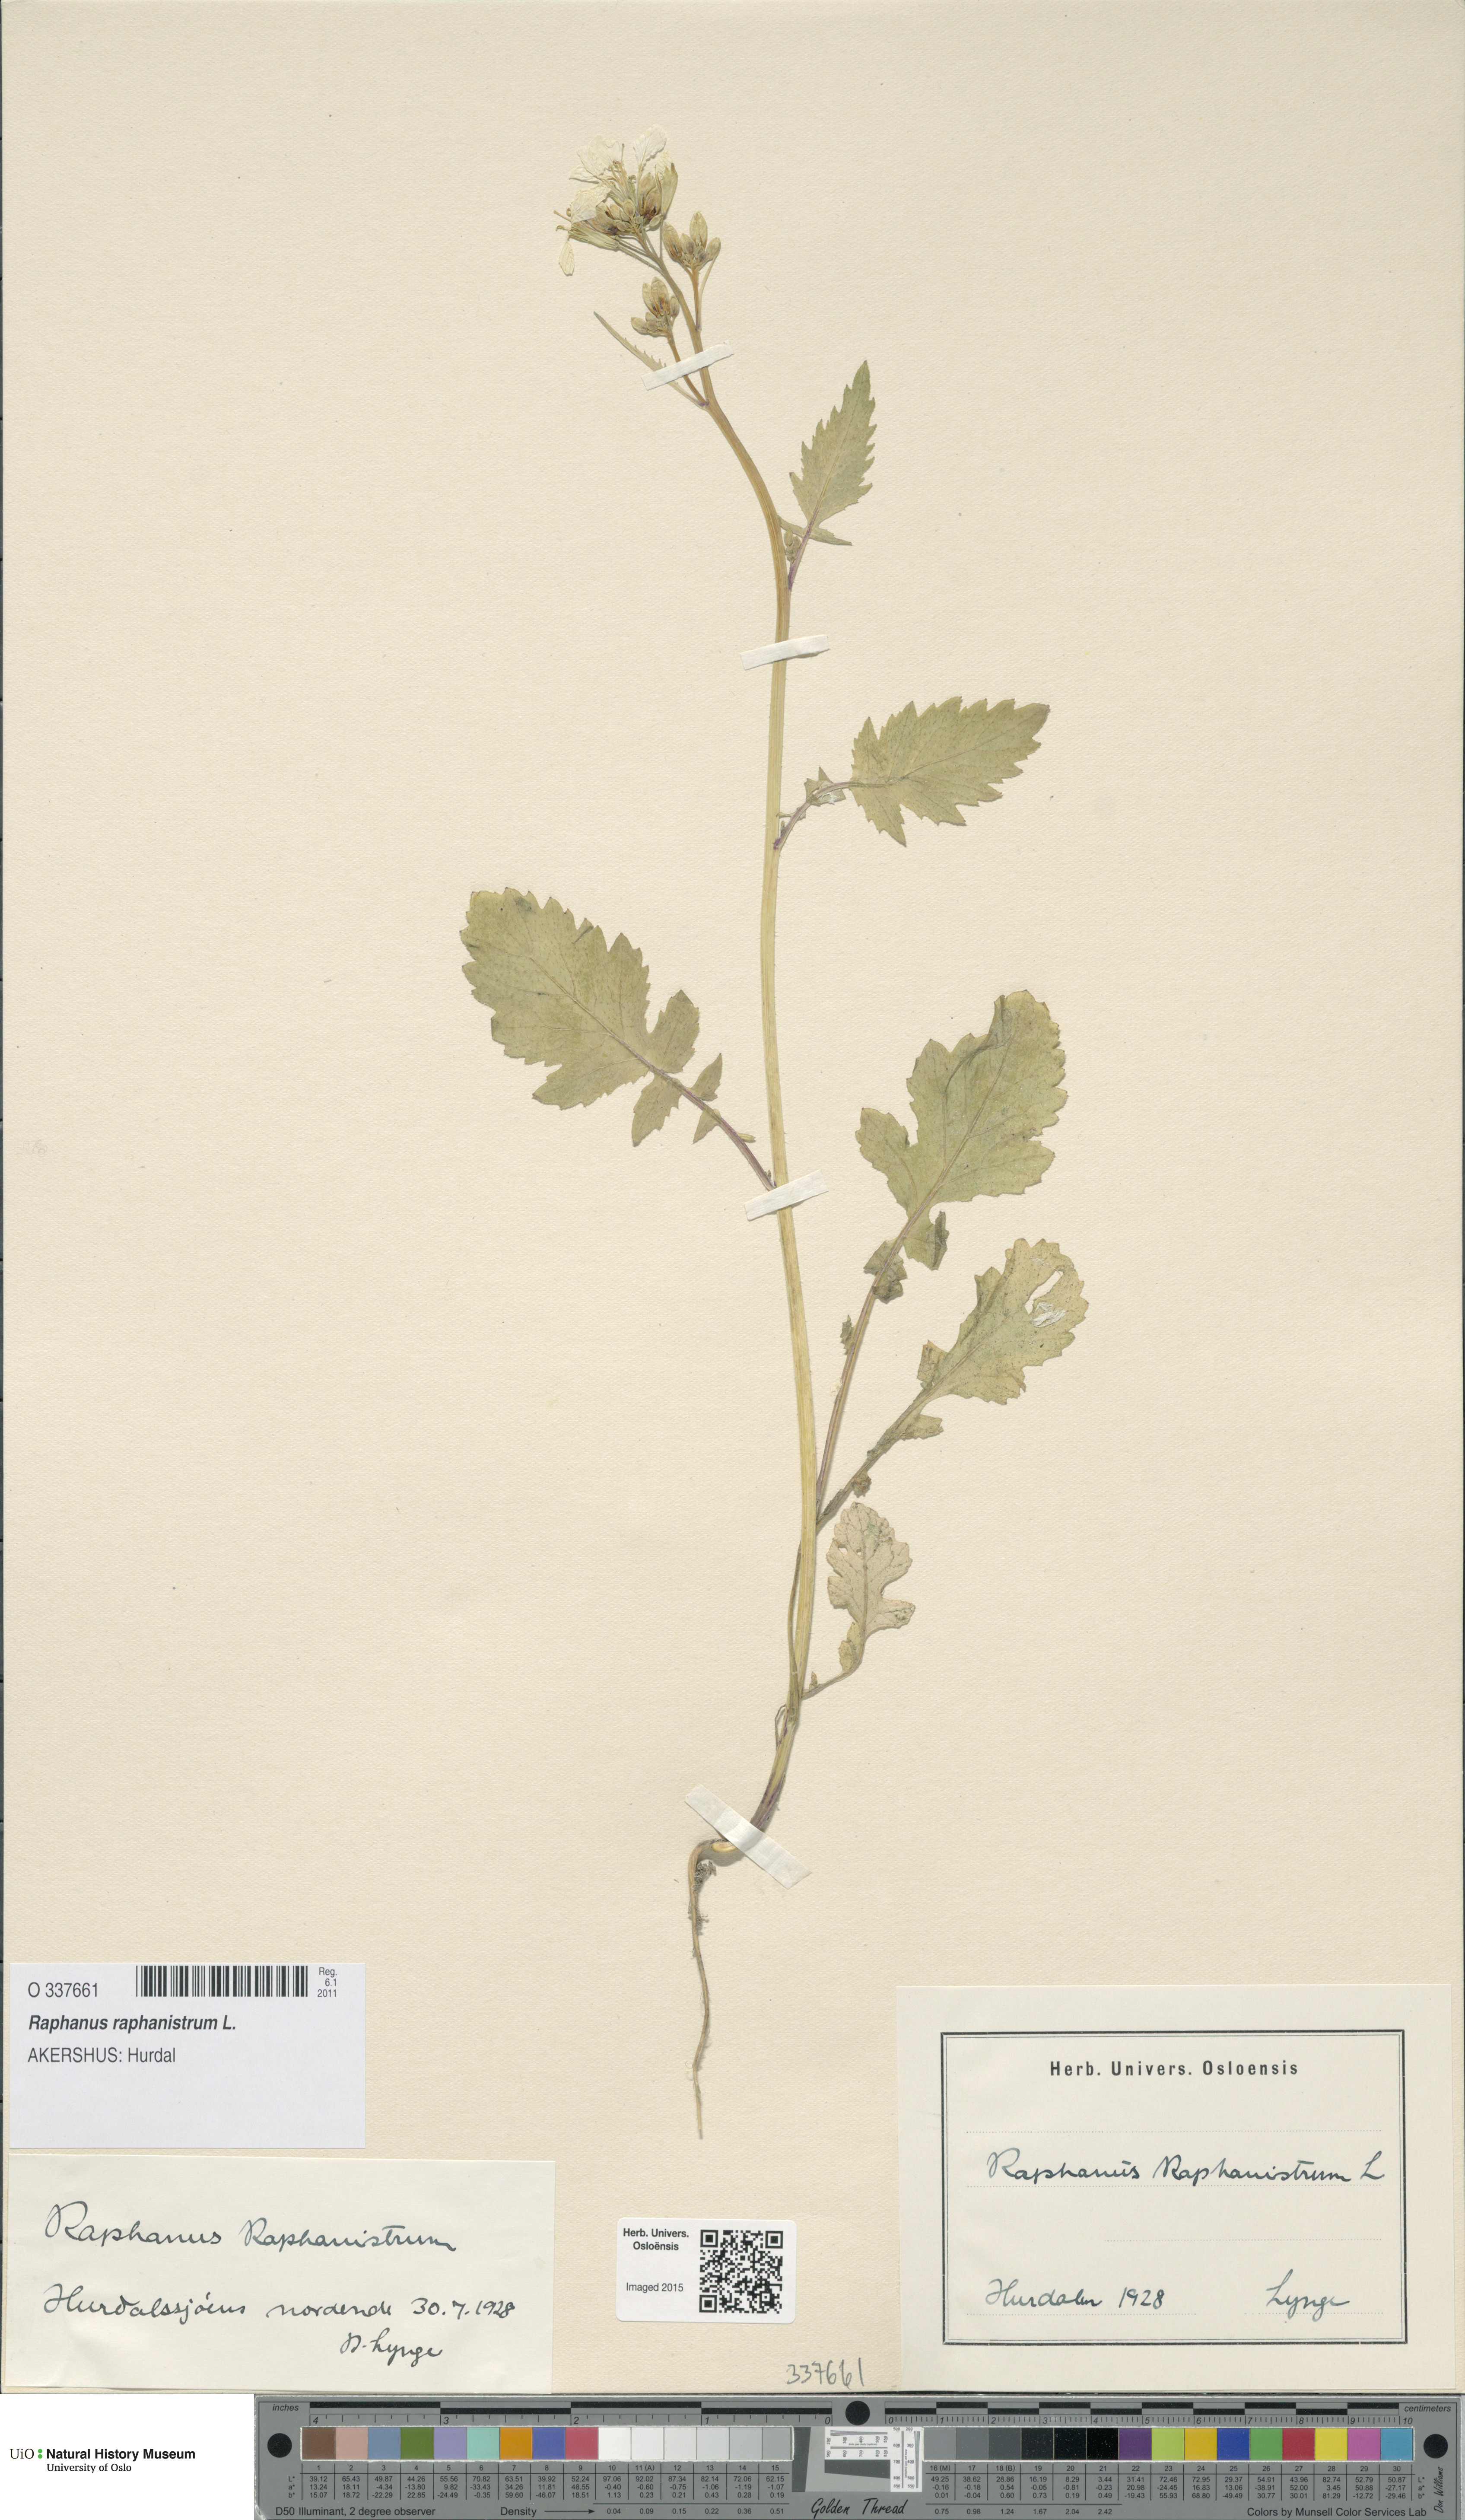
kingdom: Plantae
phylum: Tracheophyta
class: Magnoliopsida
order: Brassicales
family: Brassicaceae
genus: Raphanus
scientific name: Raphanus raphanistrum
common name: Wild radish
